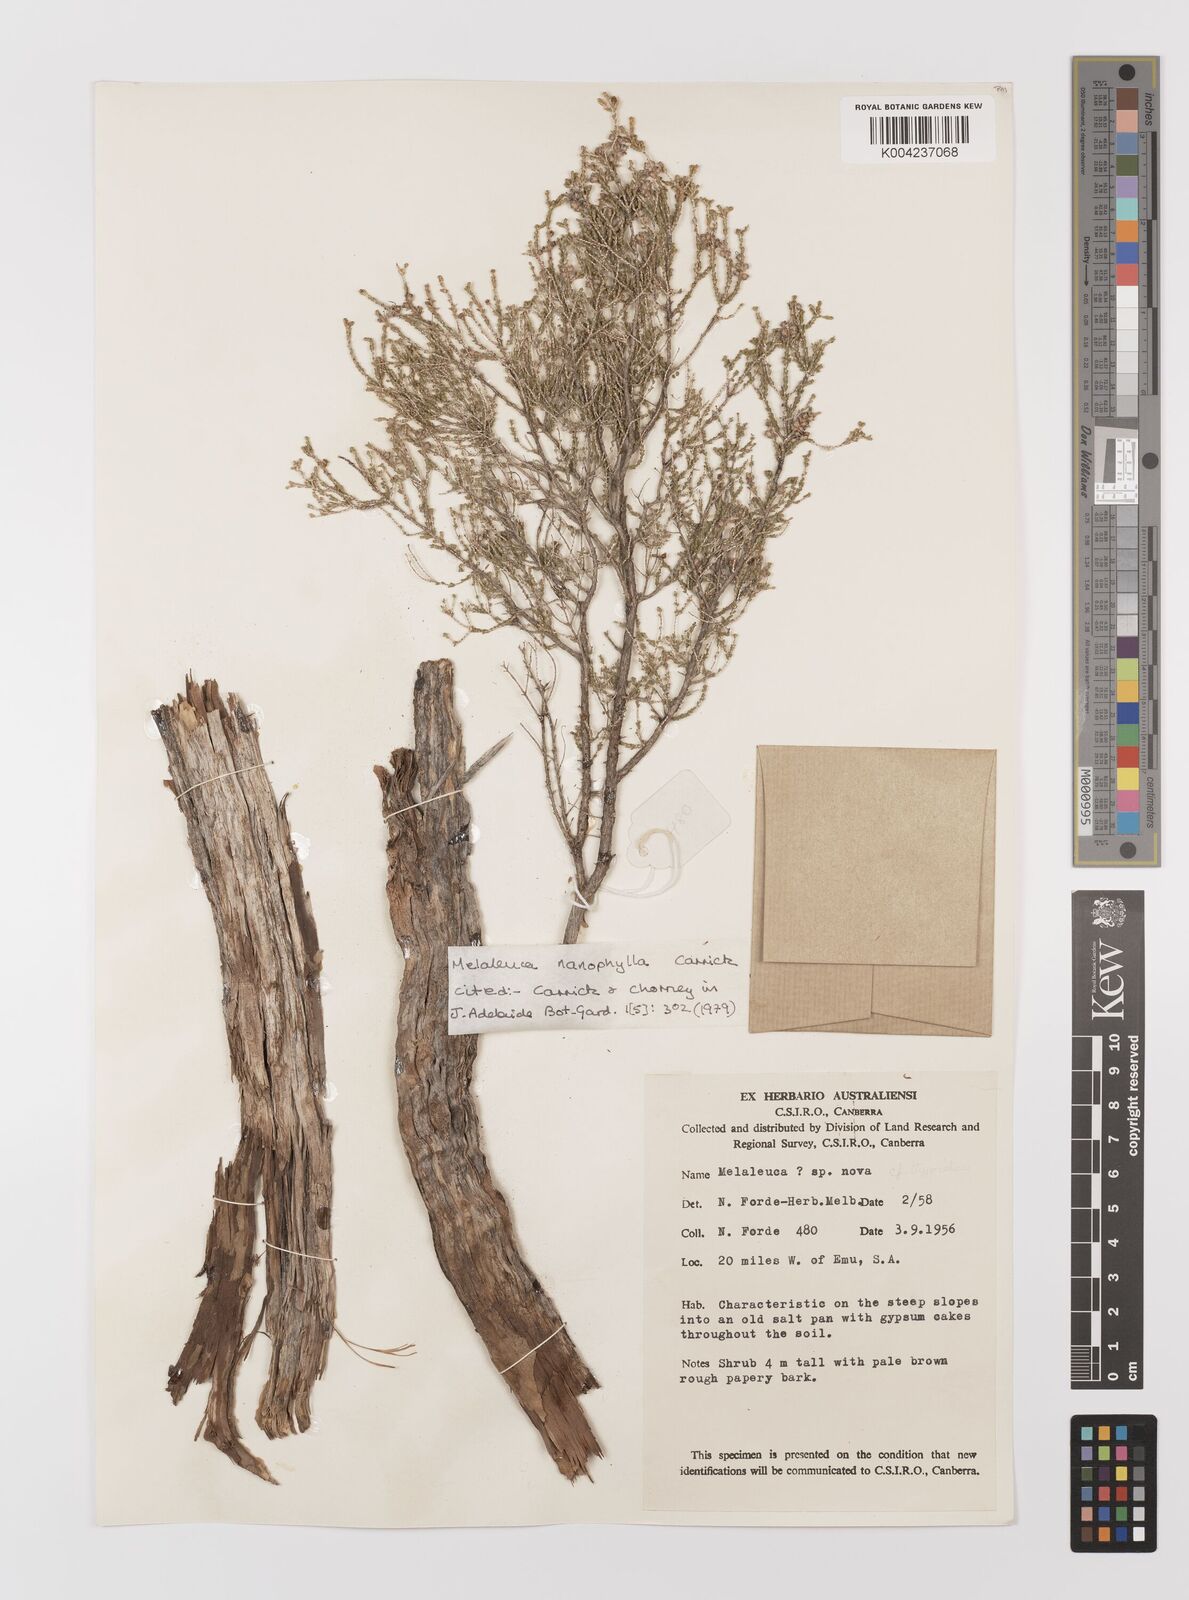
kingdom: Plantae
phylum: Tracheophyta
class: Magnoliopsida
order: Myrtales
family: Myrtaceae
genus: Melaleuca
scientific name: Melaleuca nanophylla
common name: Dwarf-leaved honey-myrtle
